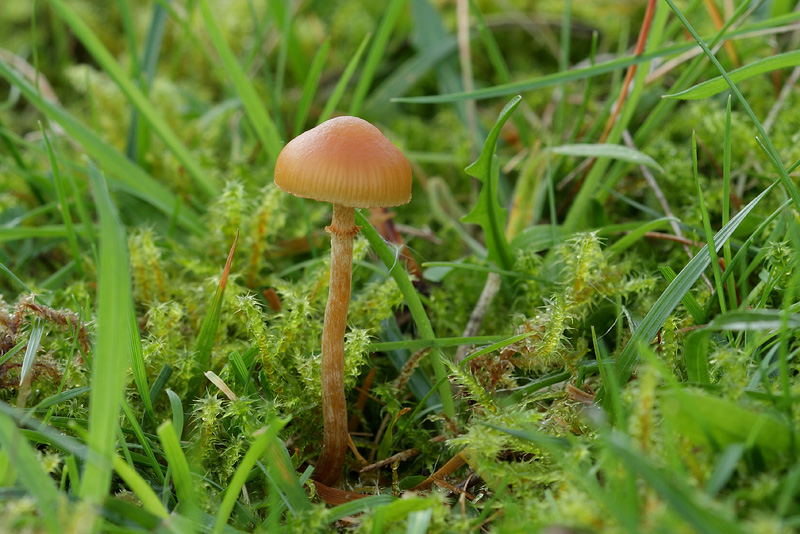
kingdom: Fungi
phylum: Basidiomycota
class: Agaricomycetes
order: Agaricales
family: Hymenogastraceae
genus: Galerina
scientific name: Galerina marginata
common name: randbæltet hjelmhat
